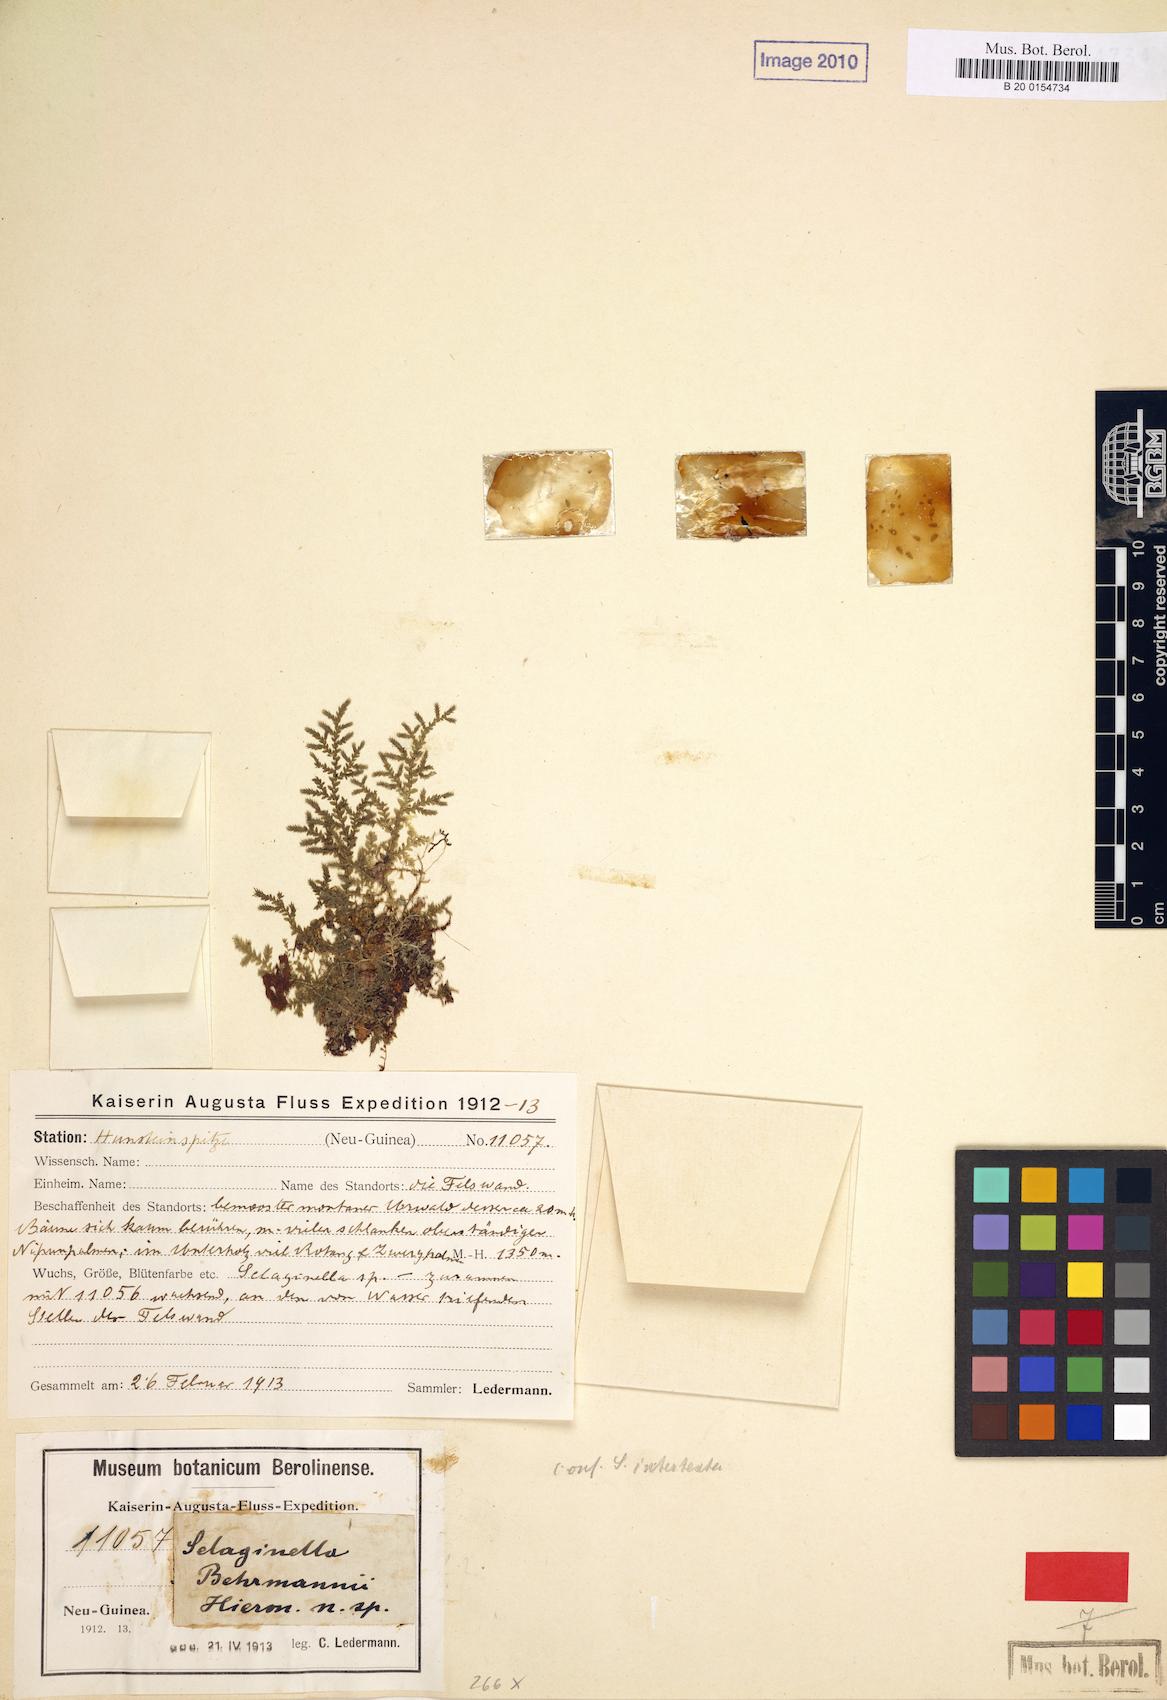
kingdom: Plantae
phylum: Tracheophyta
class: Lycopodiopsida
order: Selaginellales
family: Selaginellaceae
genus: Selaginella
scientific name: Selaginella behrmanniana
